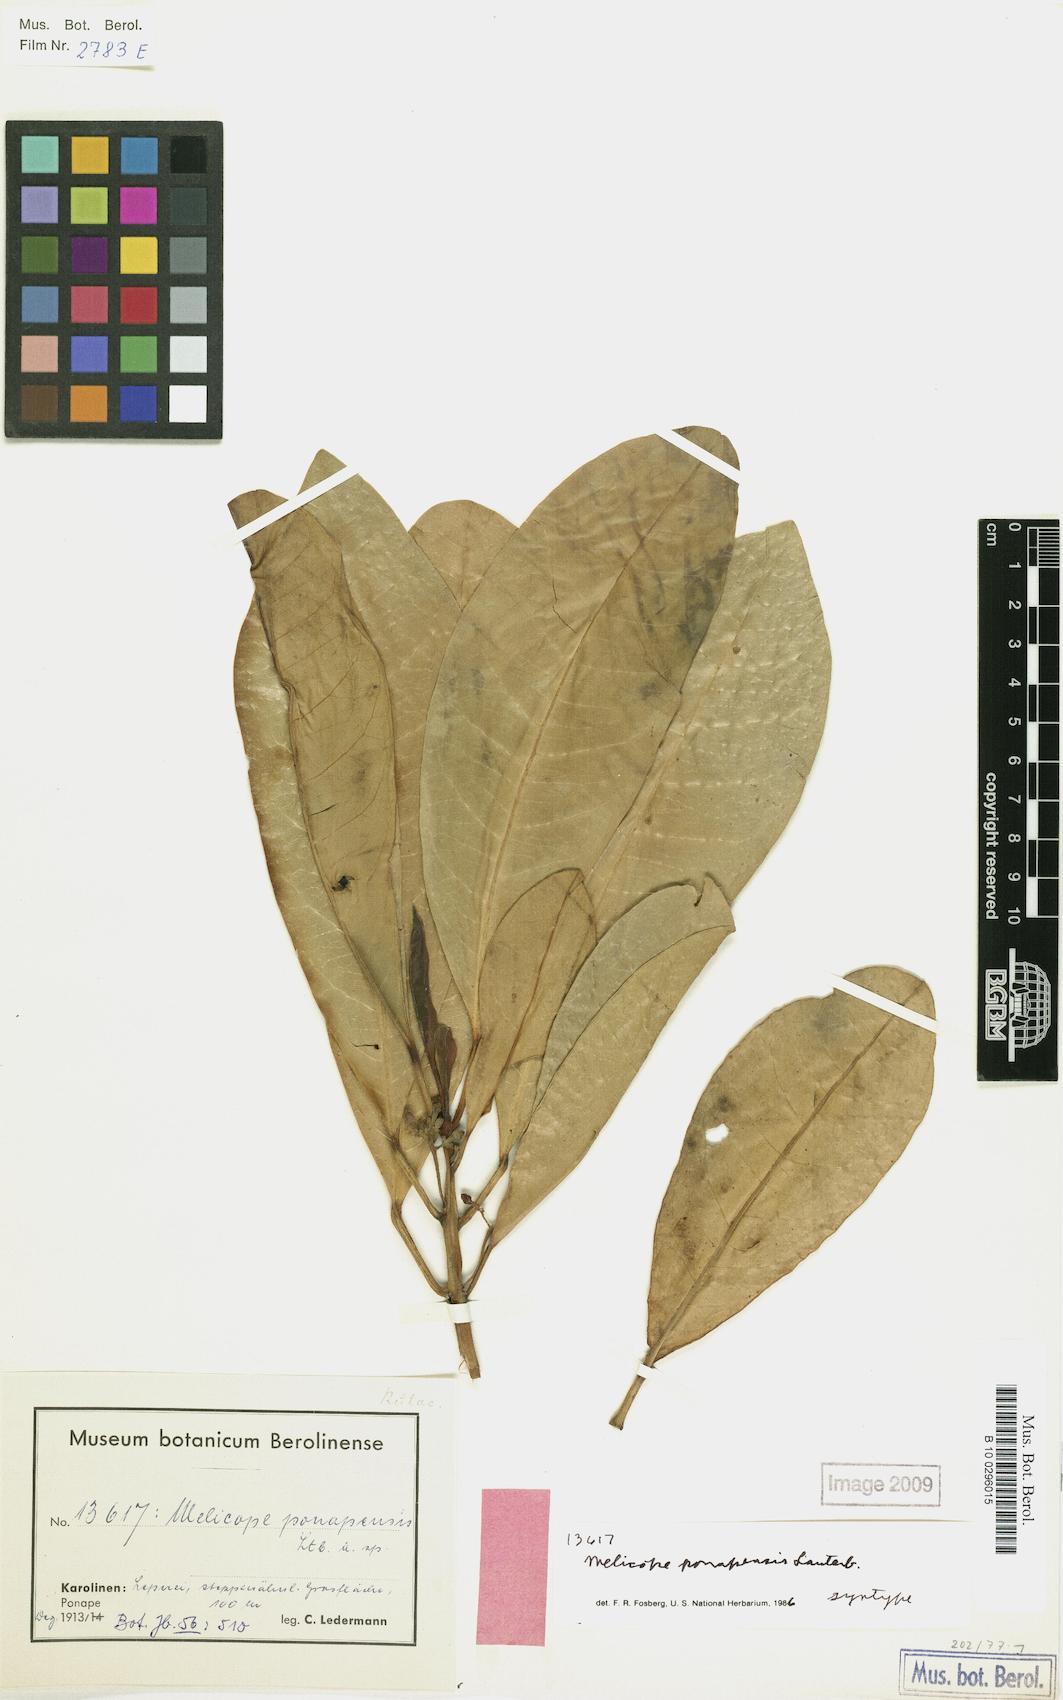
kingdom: Plantae
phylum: Tracheophyta
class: Magnoliopsida
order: Sapindales
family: Rutaceae
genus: Melicope
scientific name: Melicope ponapensis
